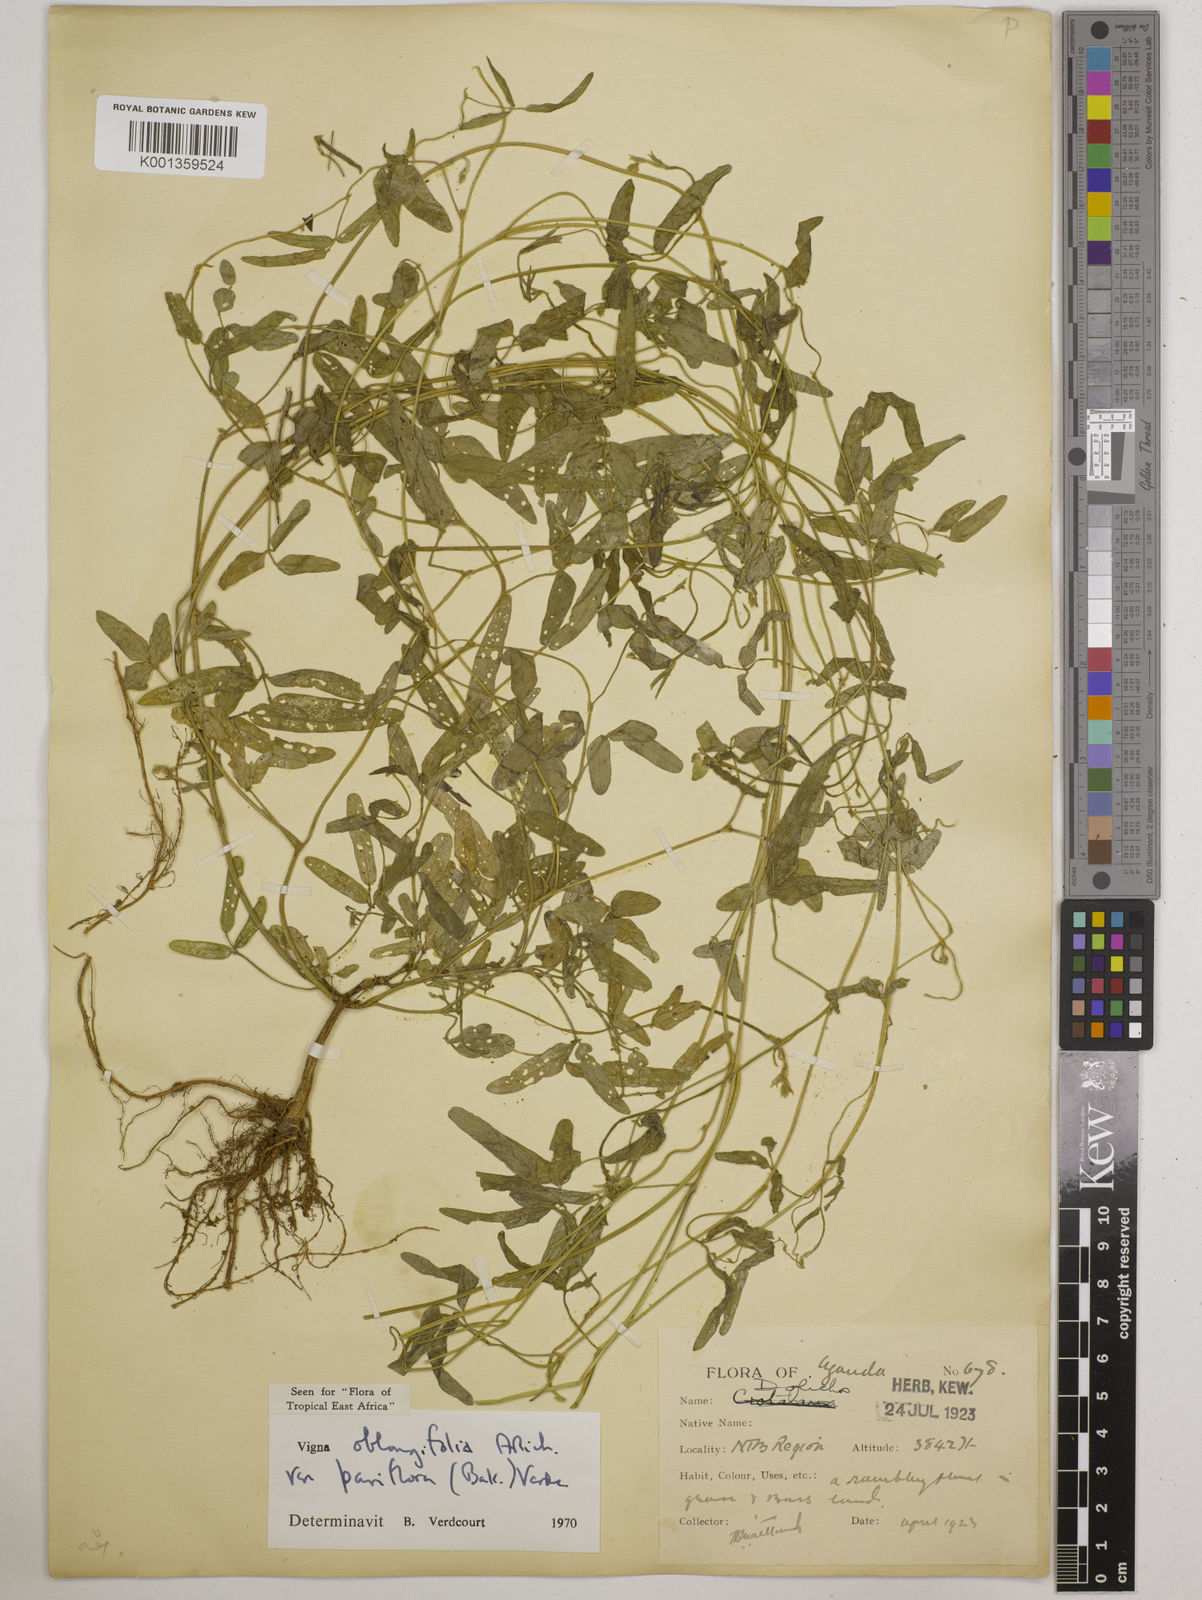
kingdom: Plantae
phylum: Tracheophyta
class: Magnoliopsida
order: Fabales
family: Fabaceae
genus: Vigna
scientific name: Vigna
